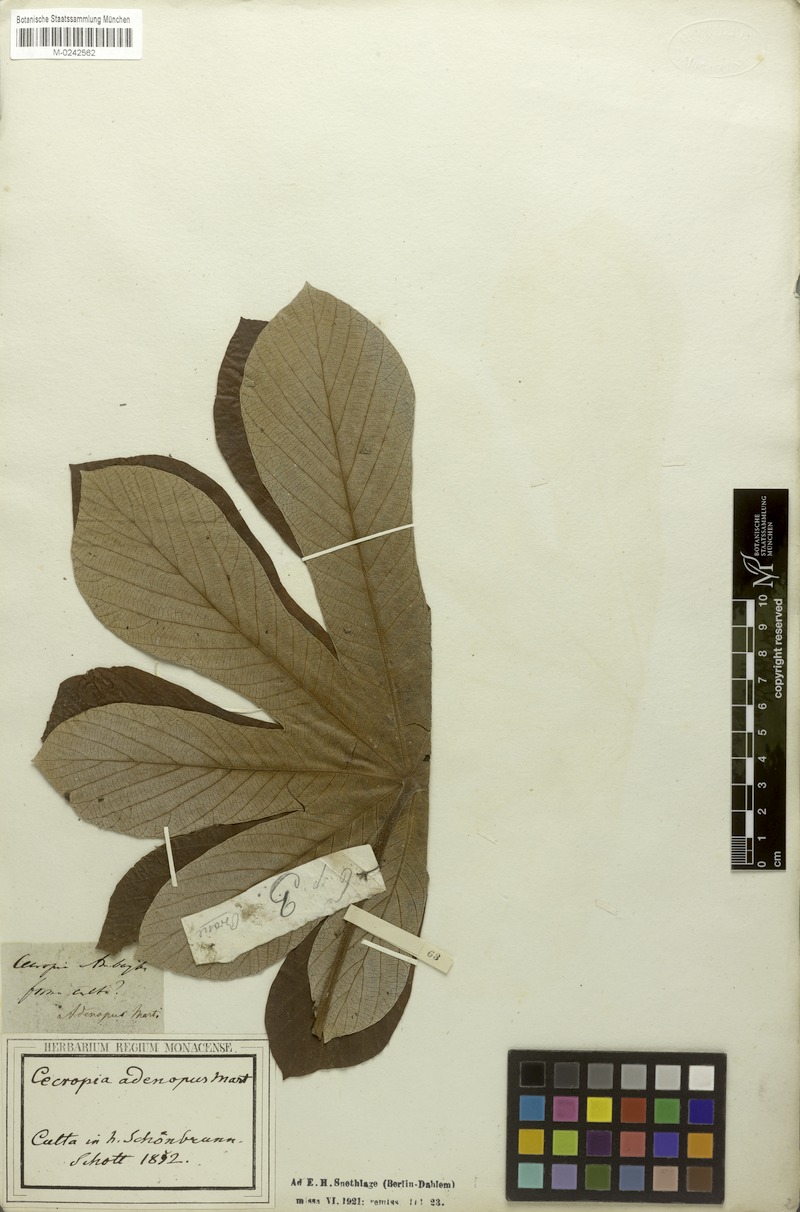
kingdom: Plantae
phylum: Tracheophyta
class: Magnoliopsida
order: Rosales
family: Urticaceae
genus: Cecropia
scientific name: Cecropia pachystachya
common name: Ambay pumpwood
